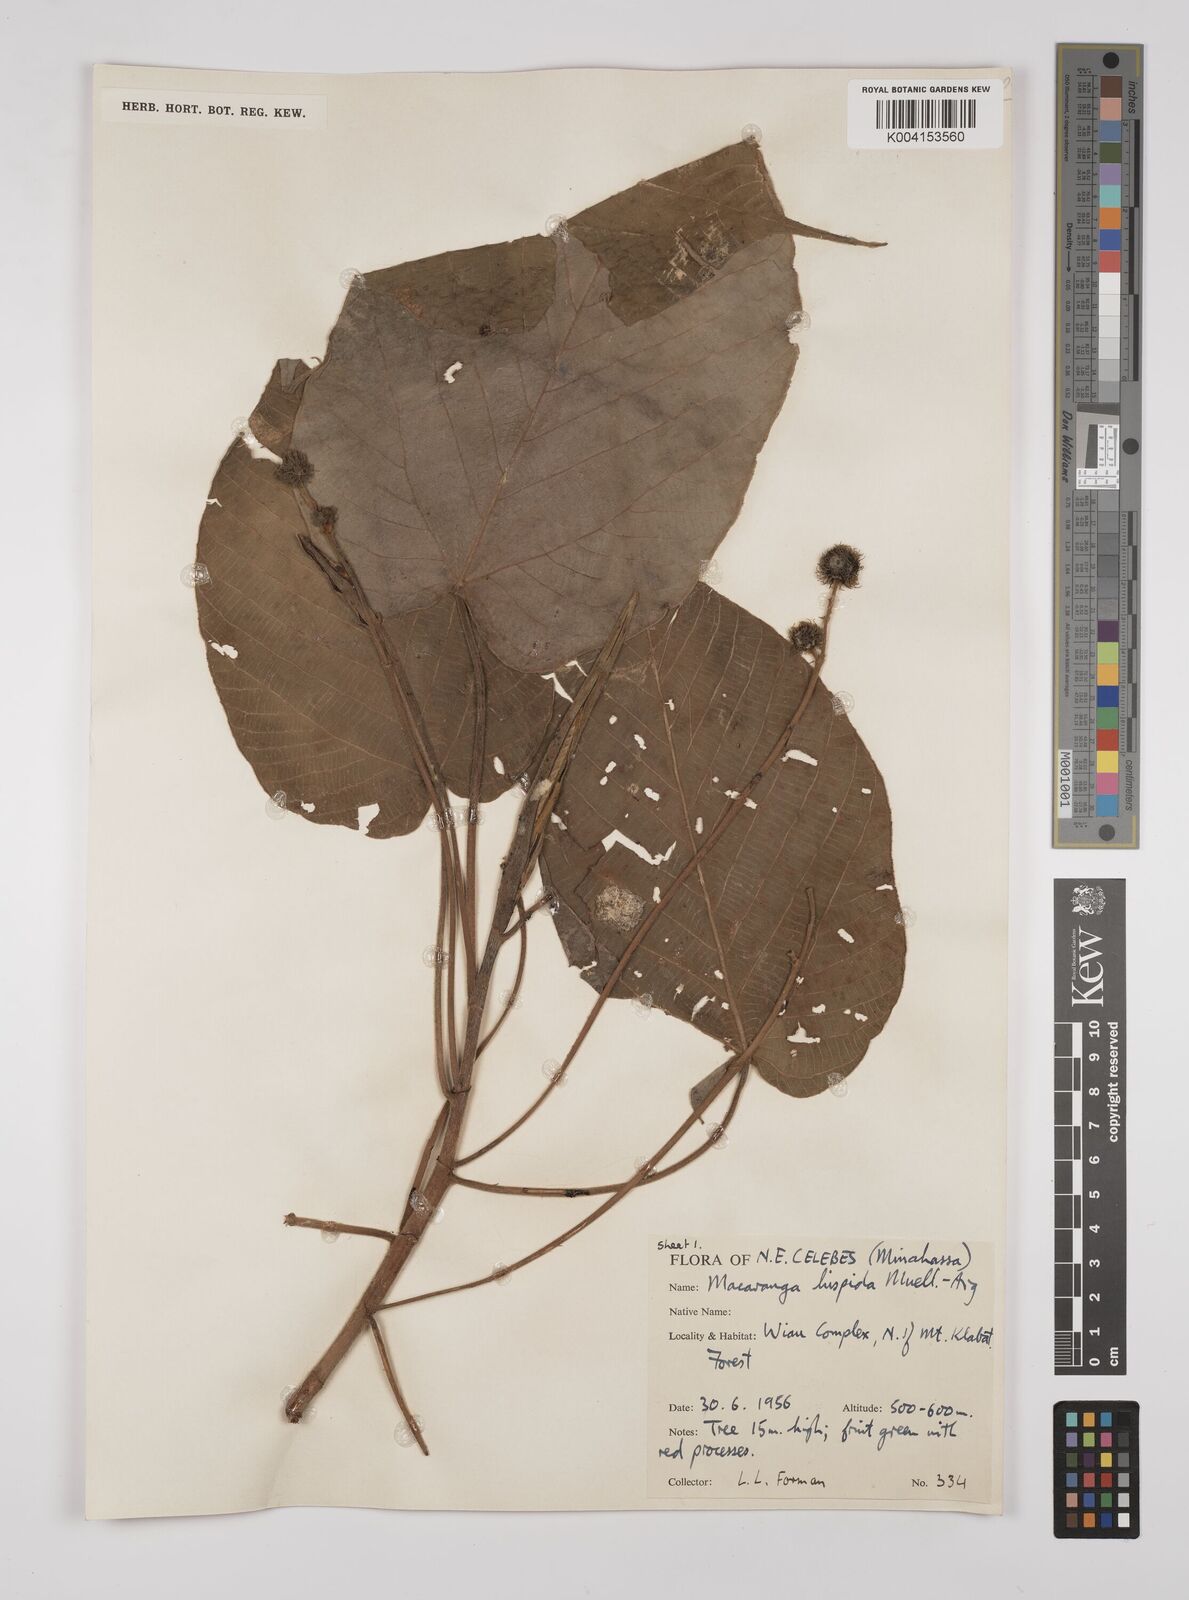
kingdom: Plantae
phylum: Tracheophyta
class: Magnoliopsida
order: Malpighiales
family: Euphorbiaceae
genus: Macaranga
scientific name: Macaranga hispida
